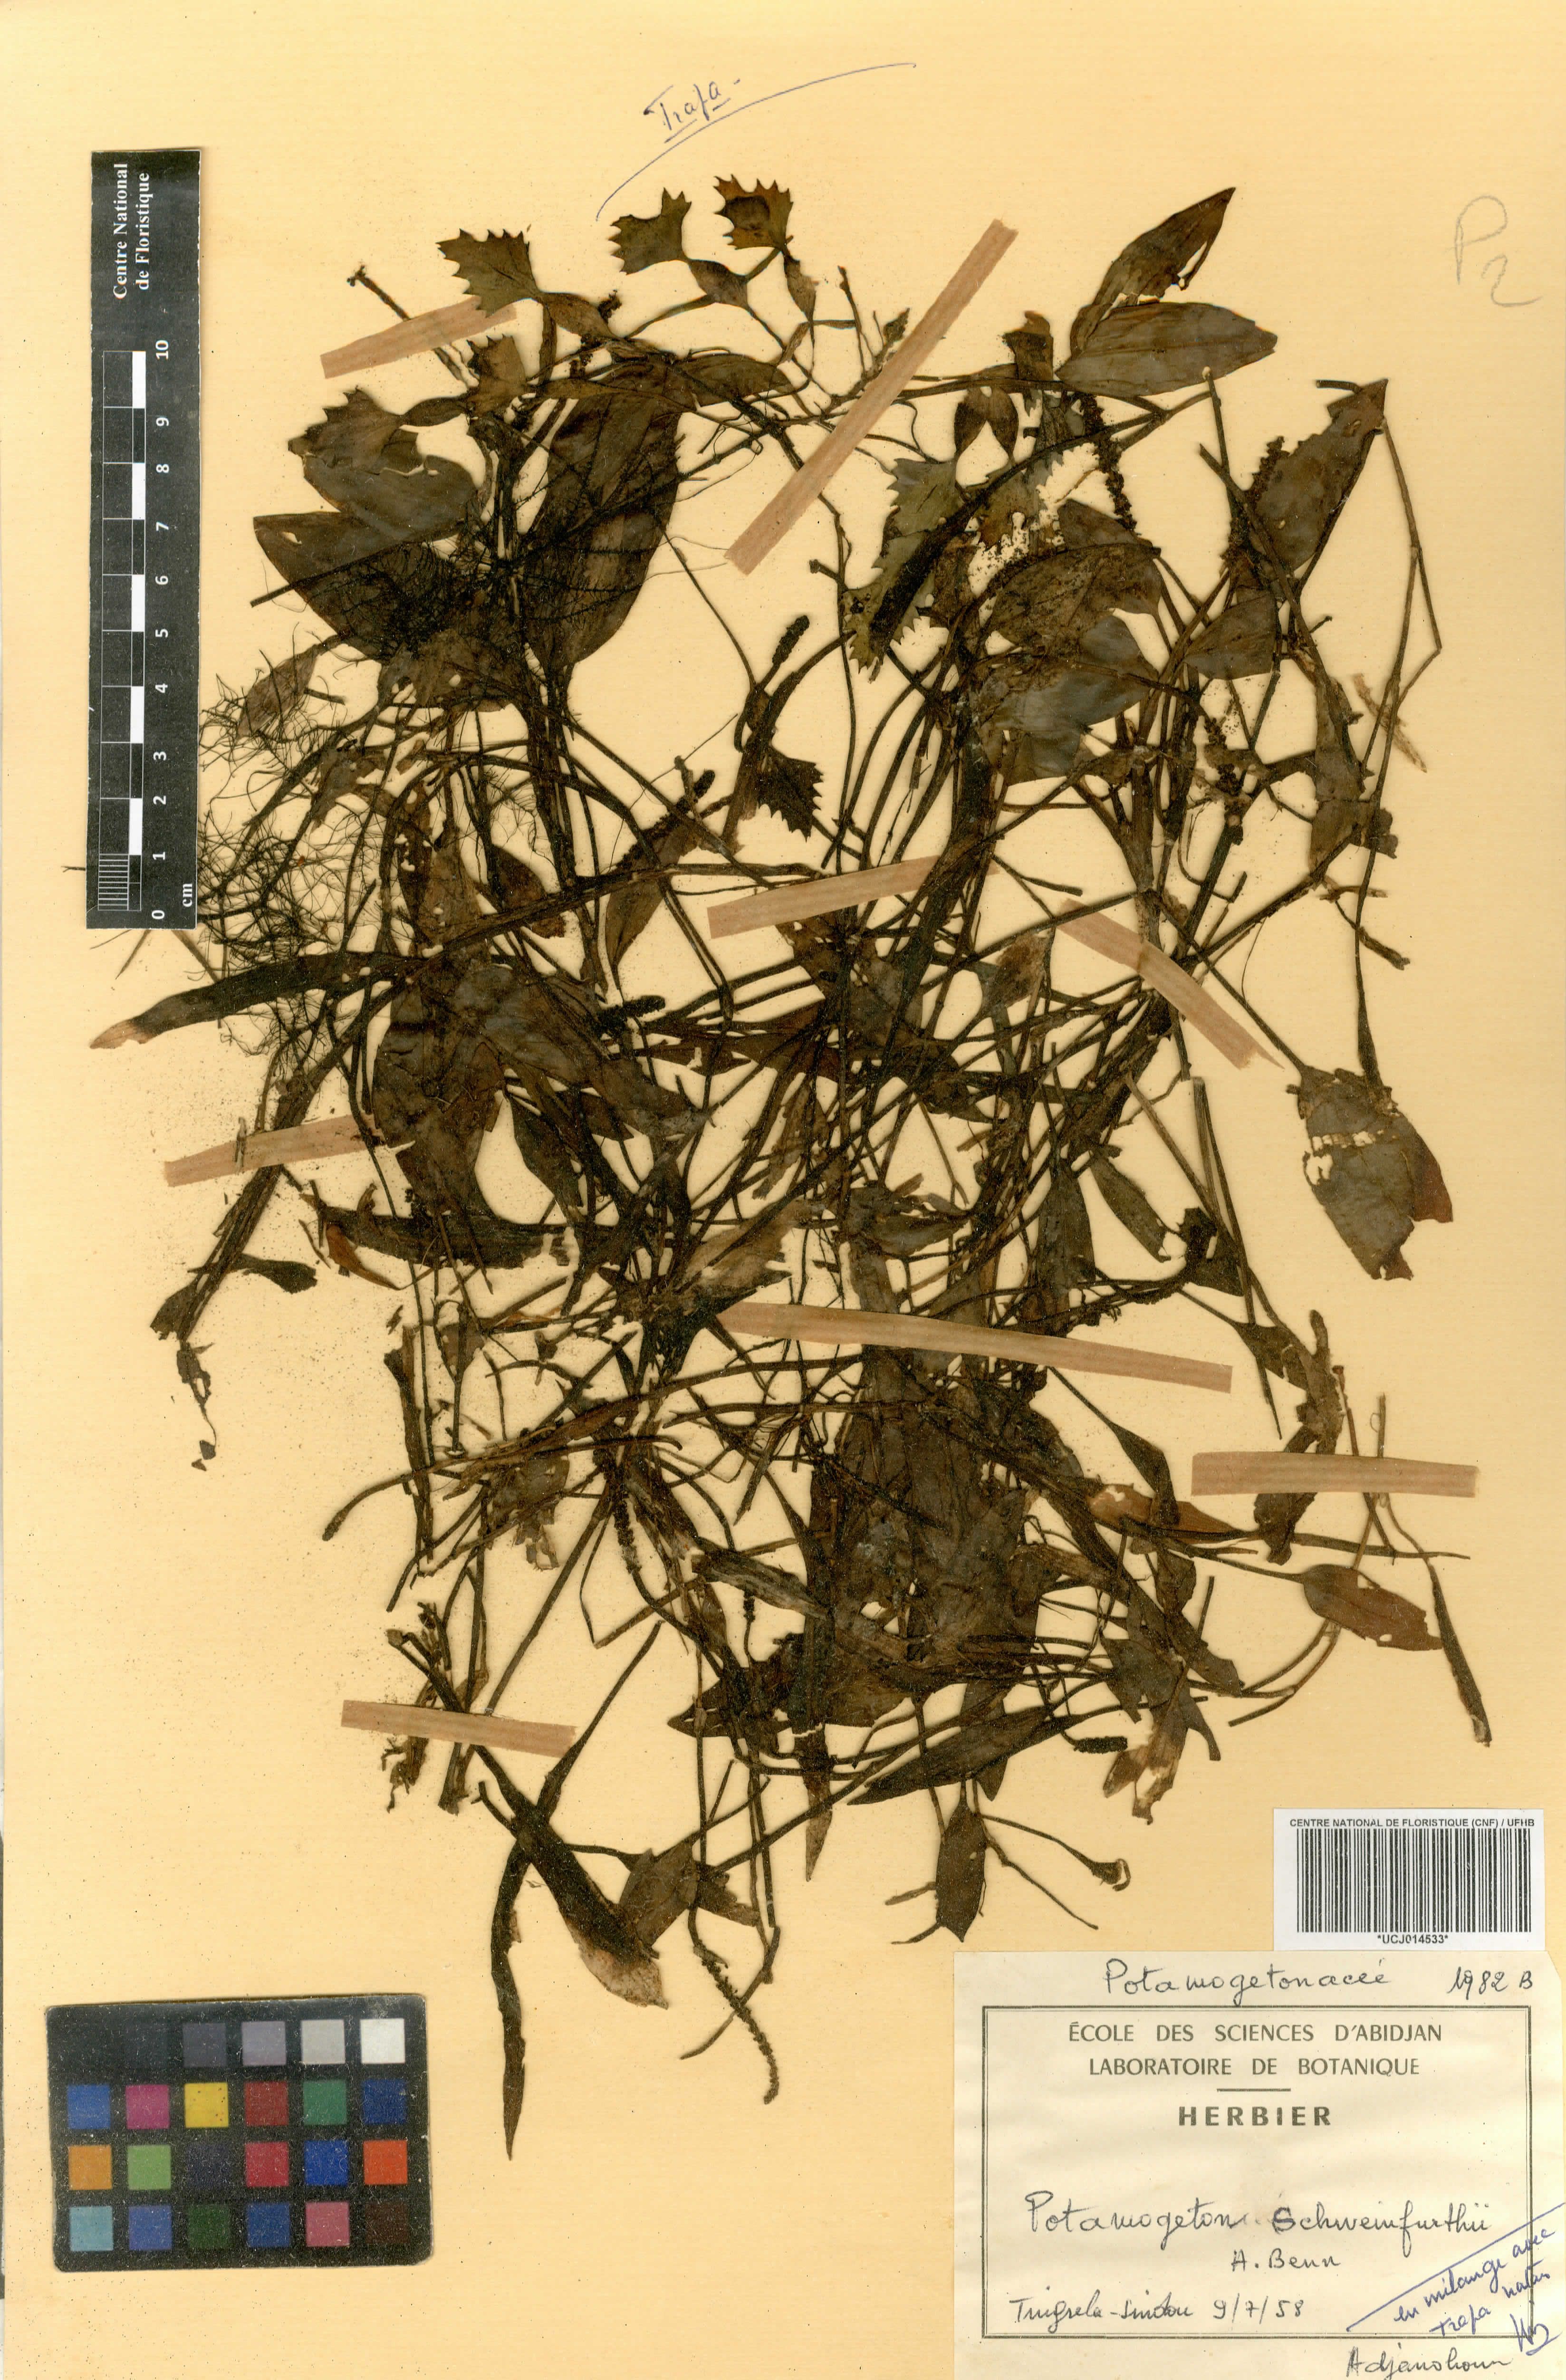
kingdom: Plantae
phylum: Tracheophyta
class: Liliopsida
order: Alismatales
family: Potamogetonaceae
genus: Potamogeton
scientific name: Potamogeton schweinfurthii
